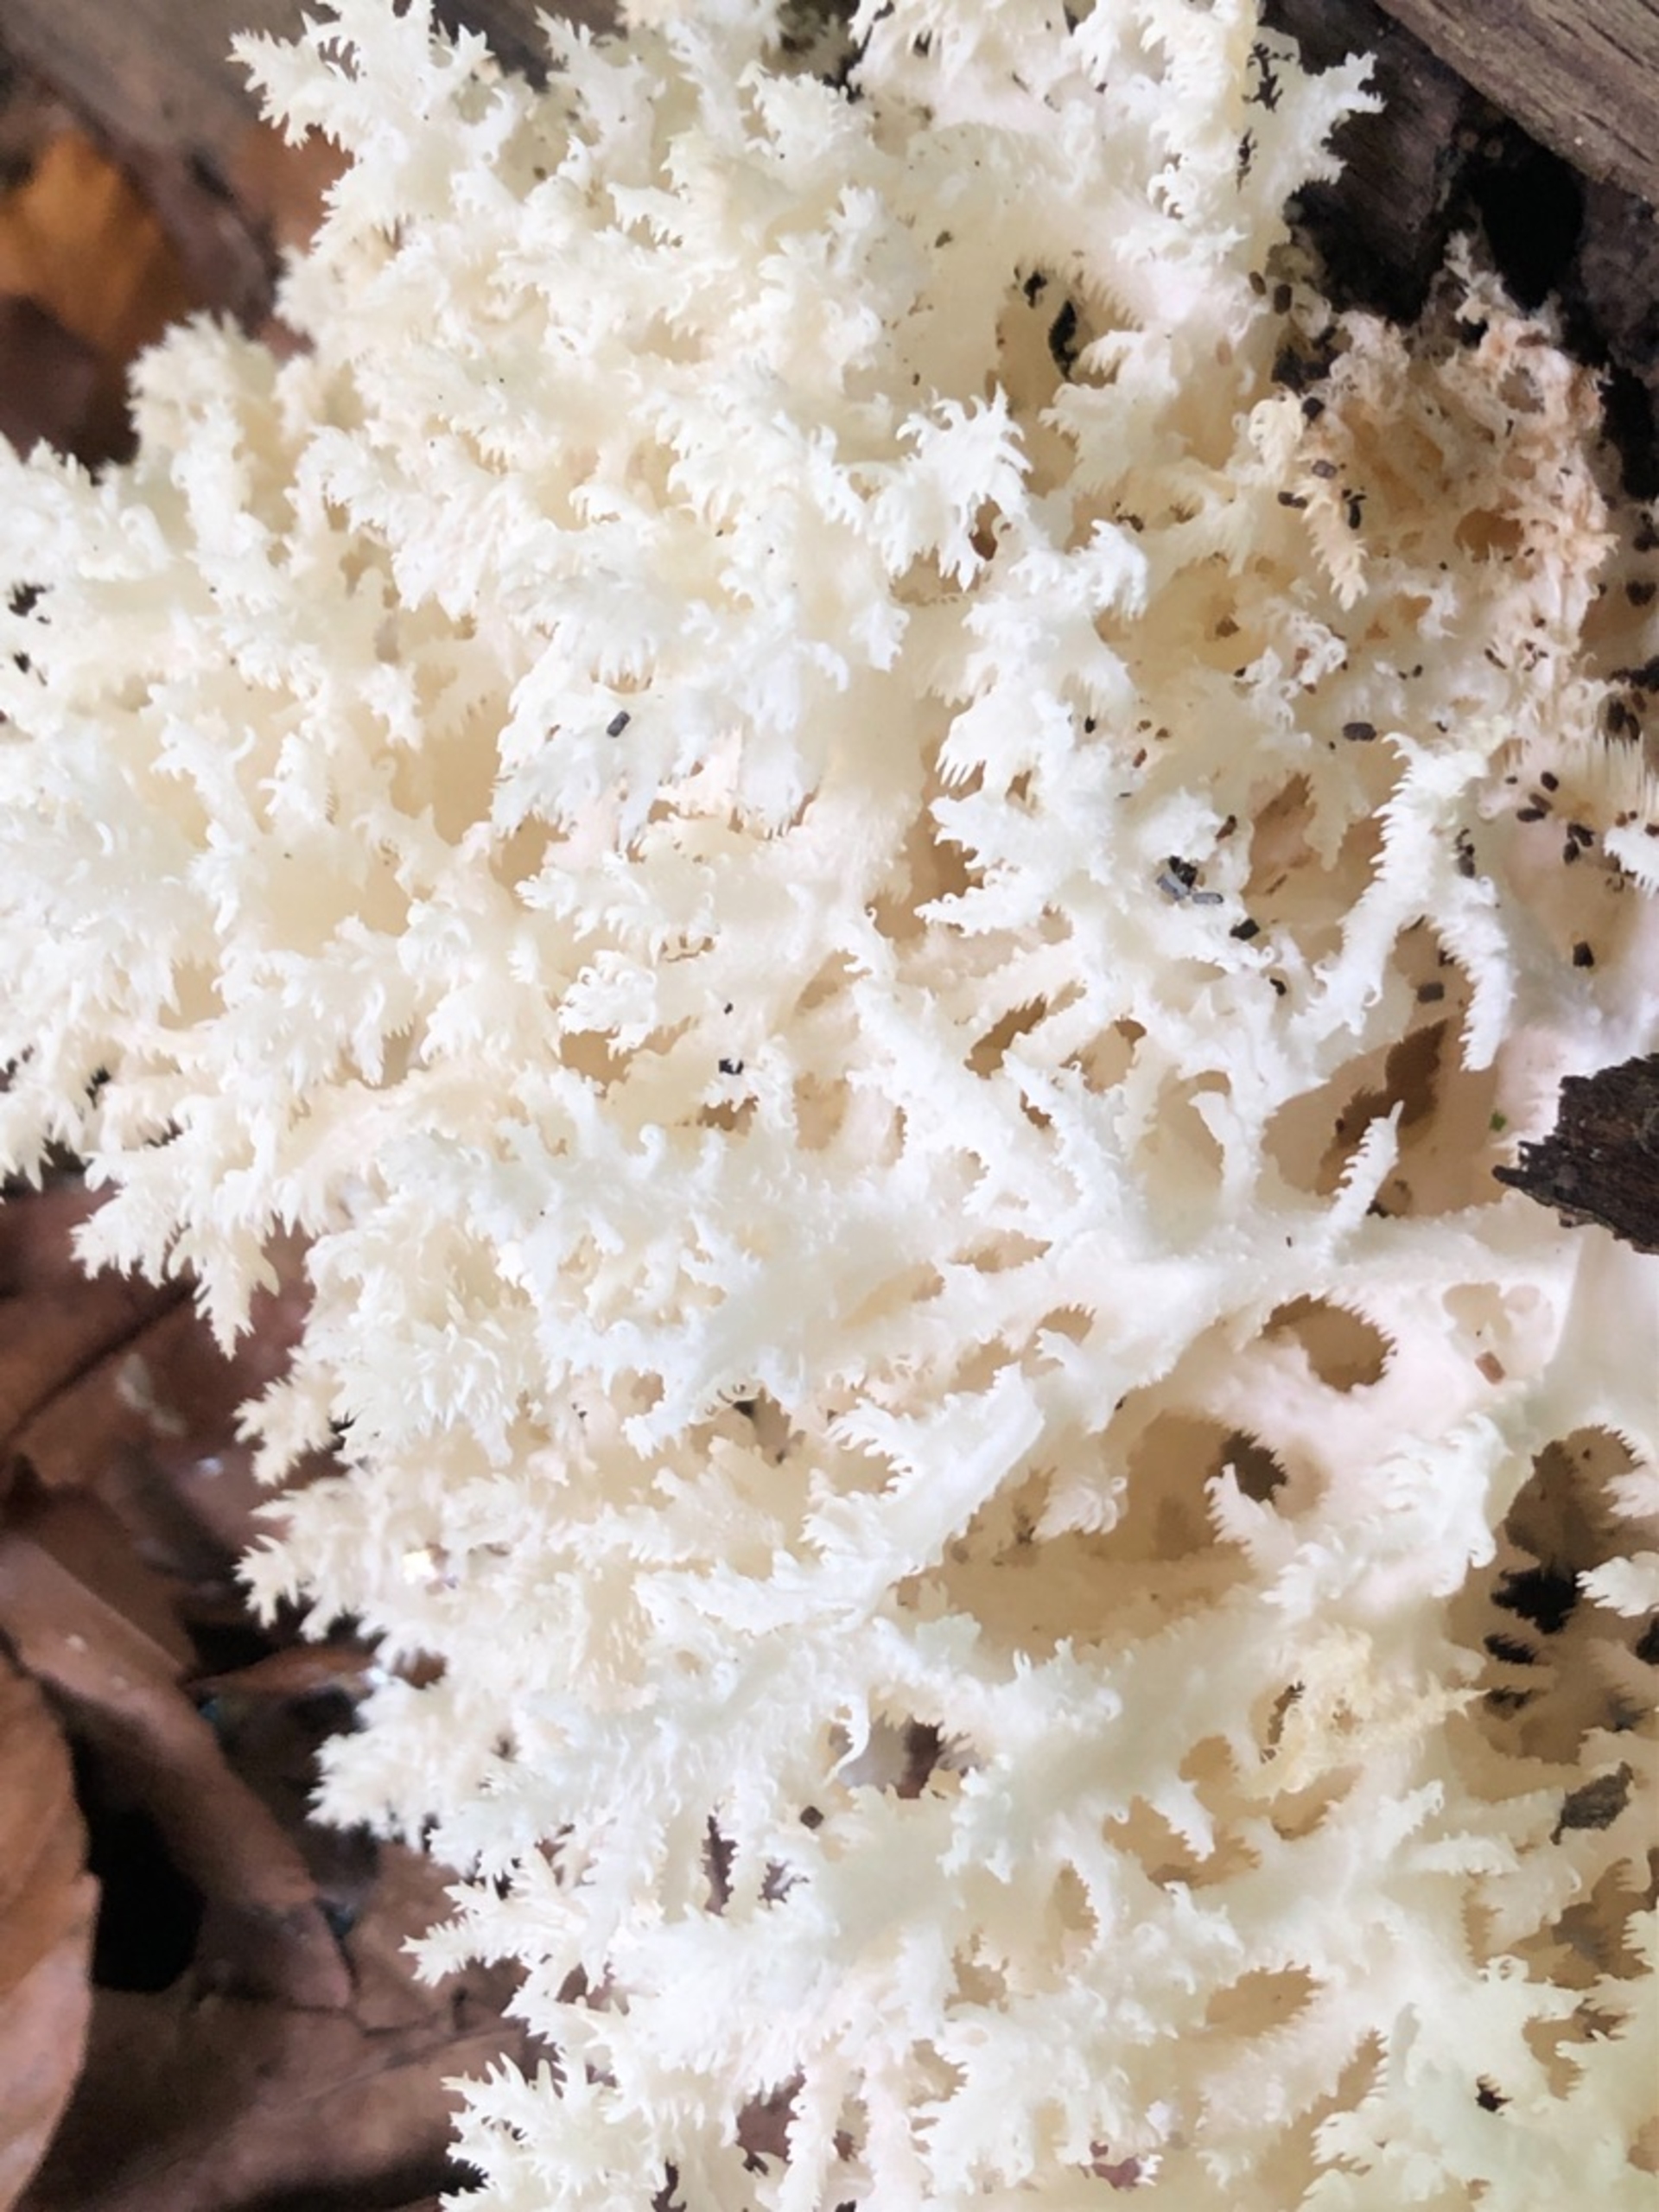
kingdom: Fungi
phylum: Basidiomycota
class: Agaricomycetes
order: Russulales
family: Hericiaceae
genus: Hericium
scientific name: Hericium coralloides
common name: Koralpigsvamp
